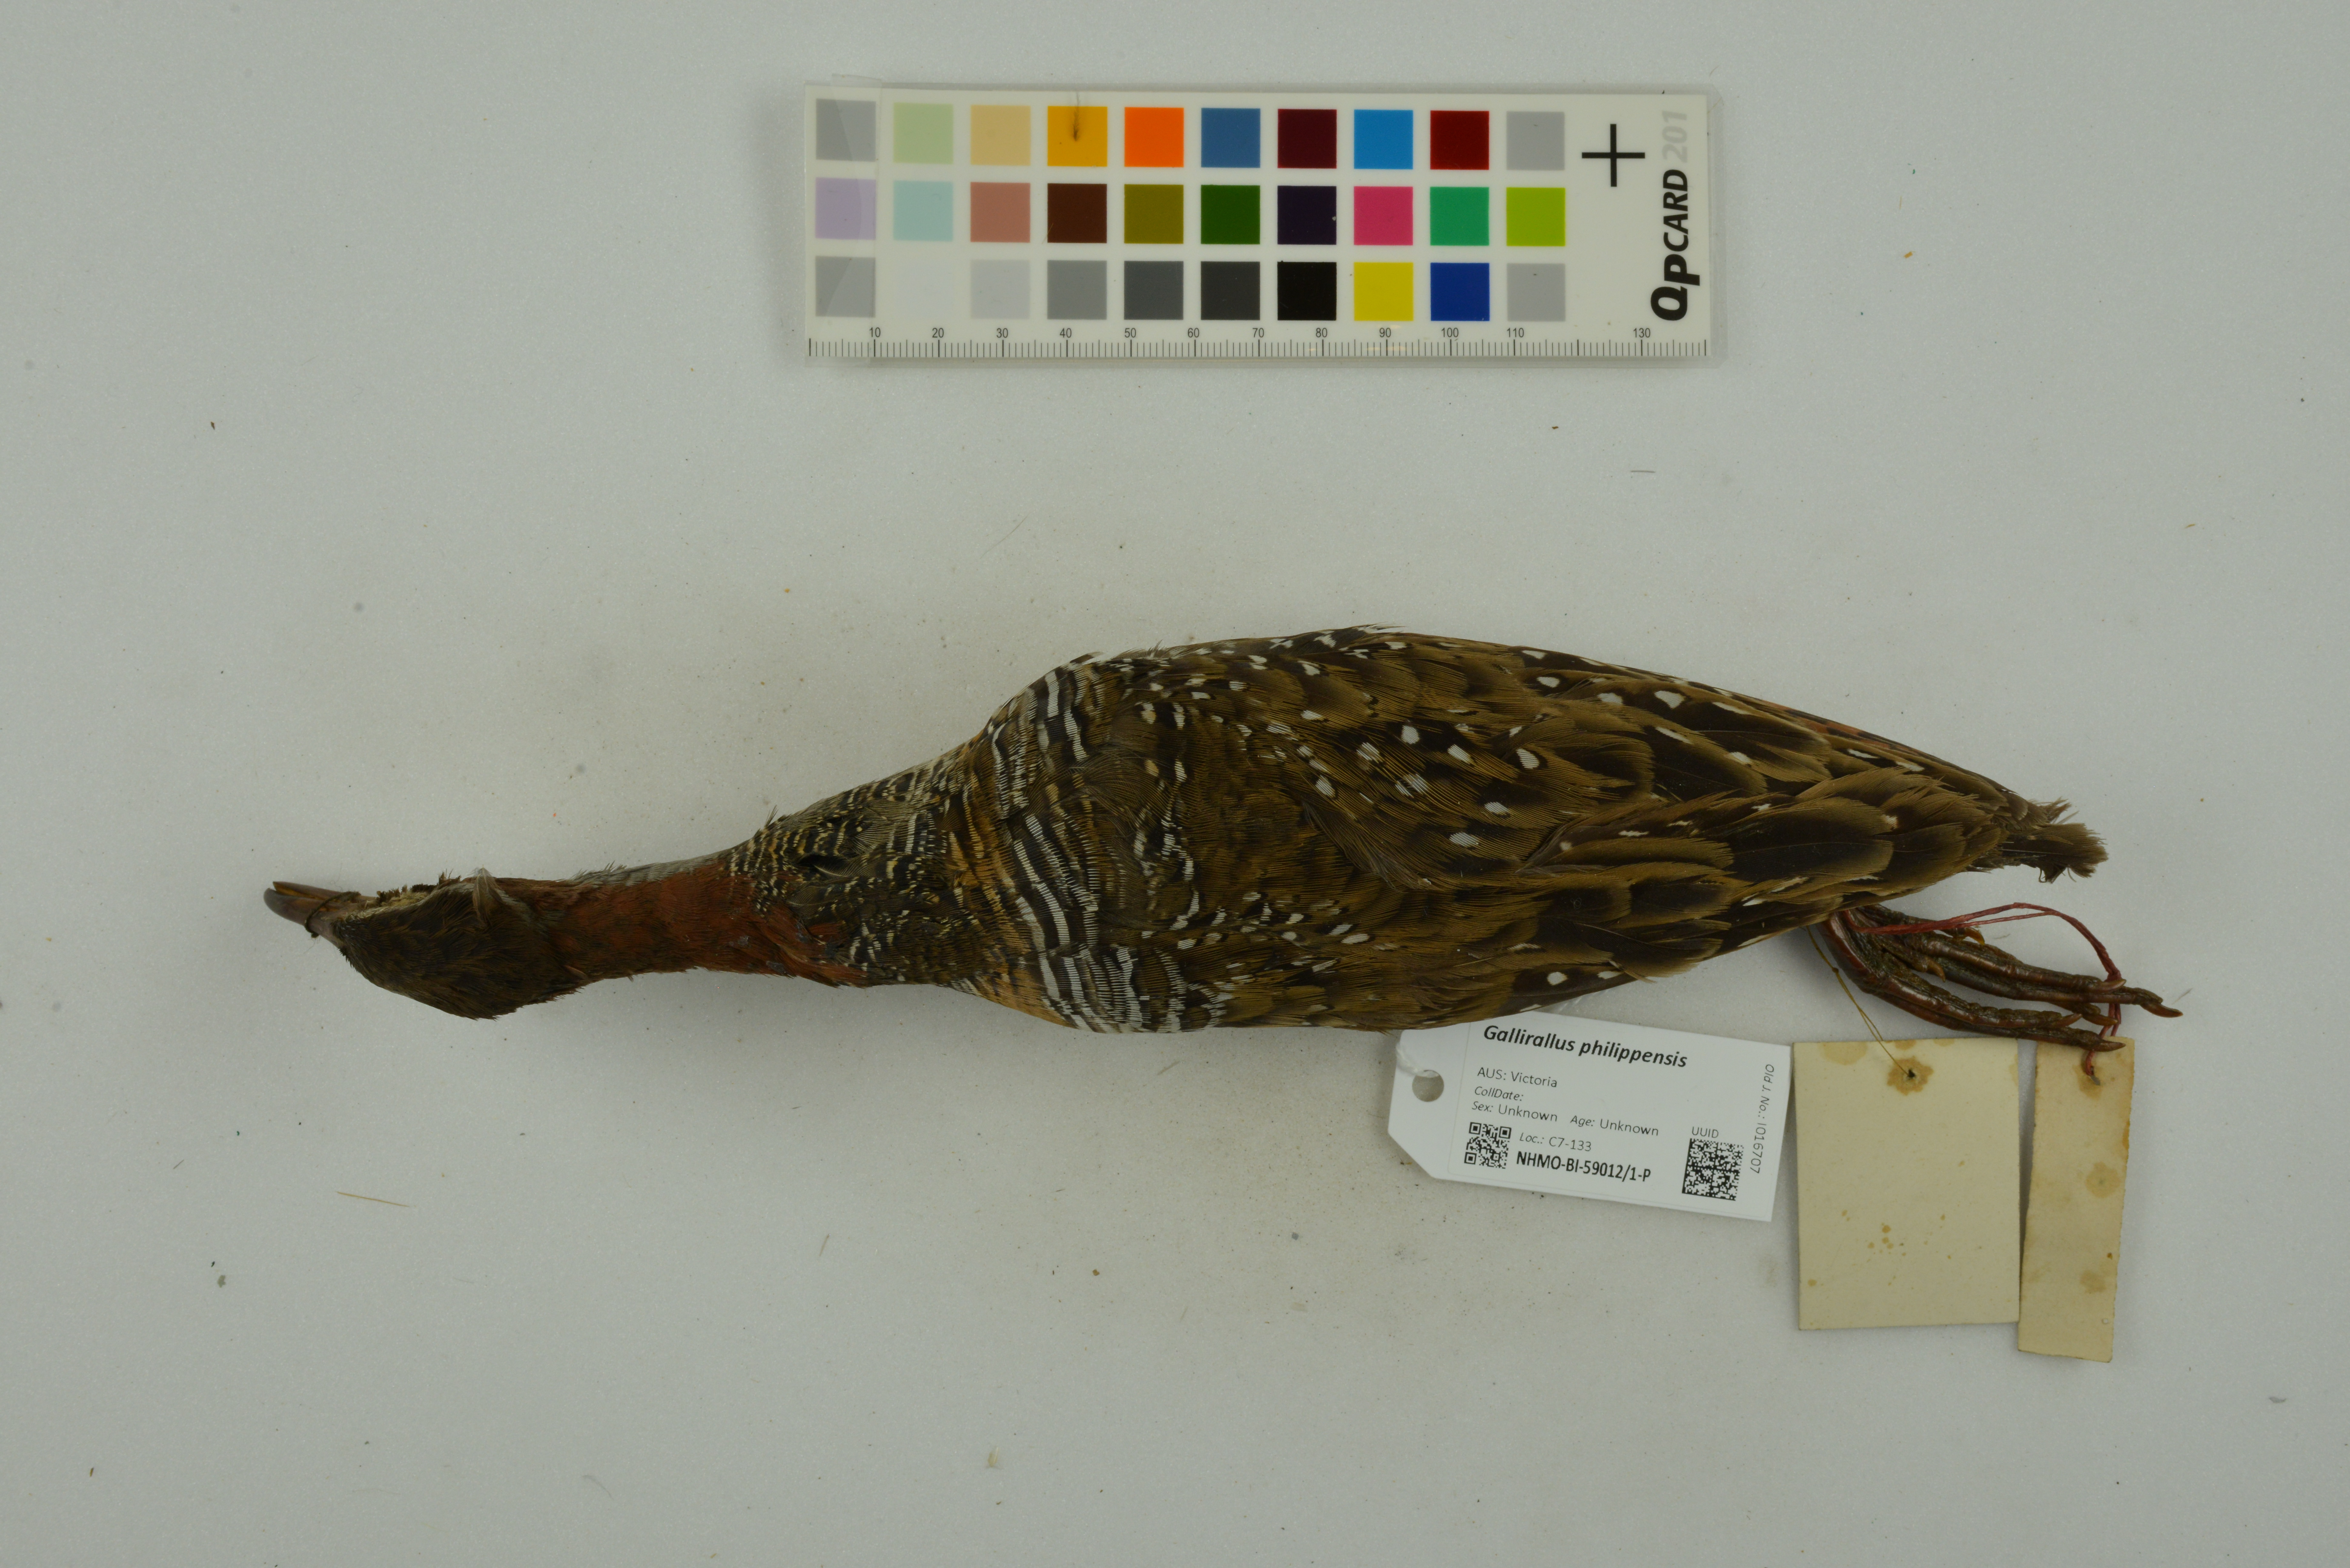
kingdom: Animalia
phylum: Chordata
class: Aves
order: Gruiformes
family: Rallidae
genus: Gallirallus
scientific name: Gallirallus philippensis
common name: Buff-banded rail
